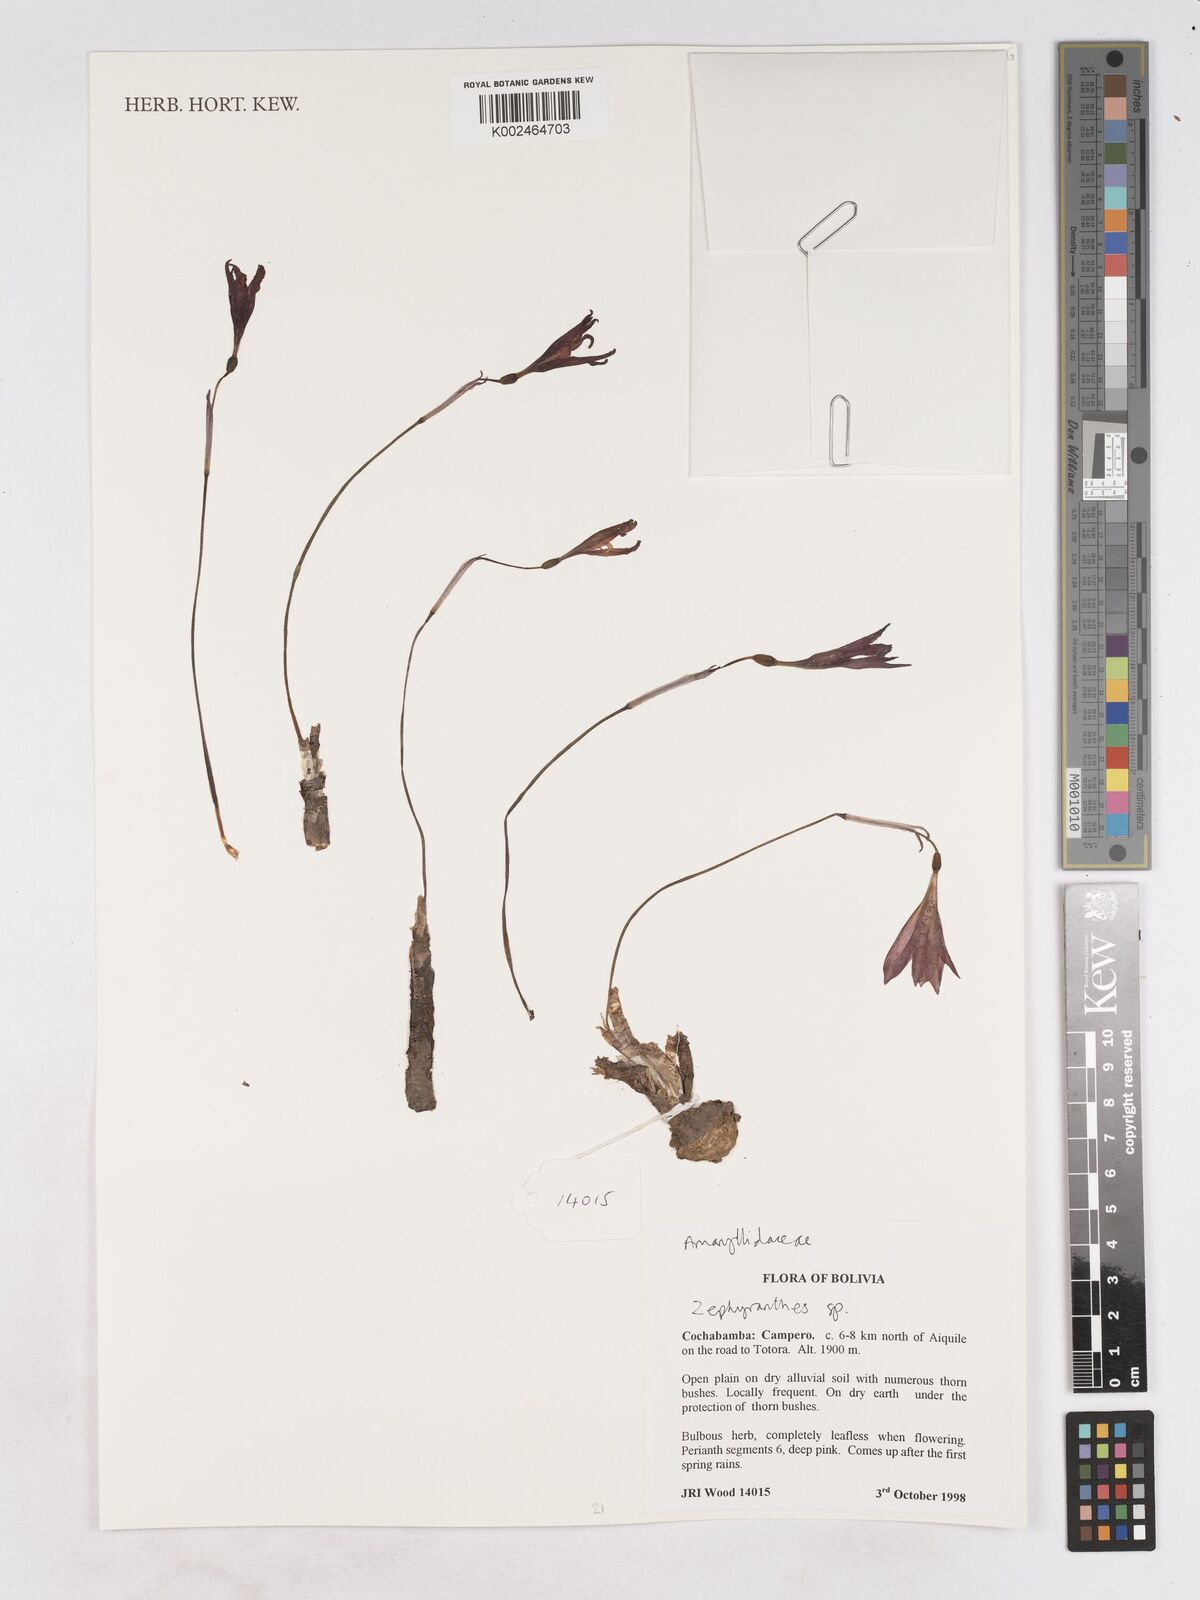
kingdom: Plantae
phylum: Tracheophyta
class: Liliopsida
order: Asparagales
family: Amaryllidaceae
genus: Zephyranthes
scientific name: Zephyranthes
